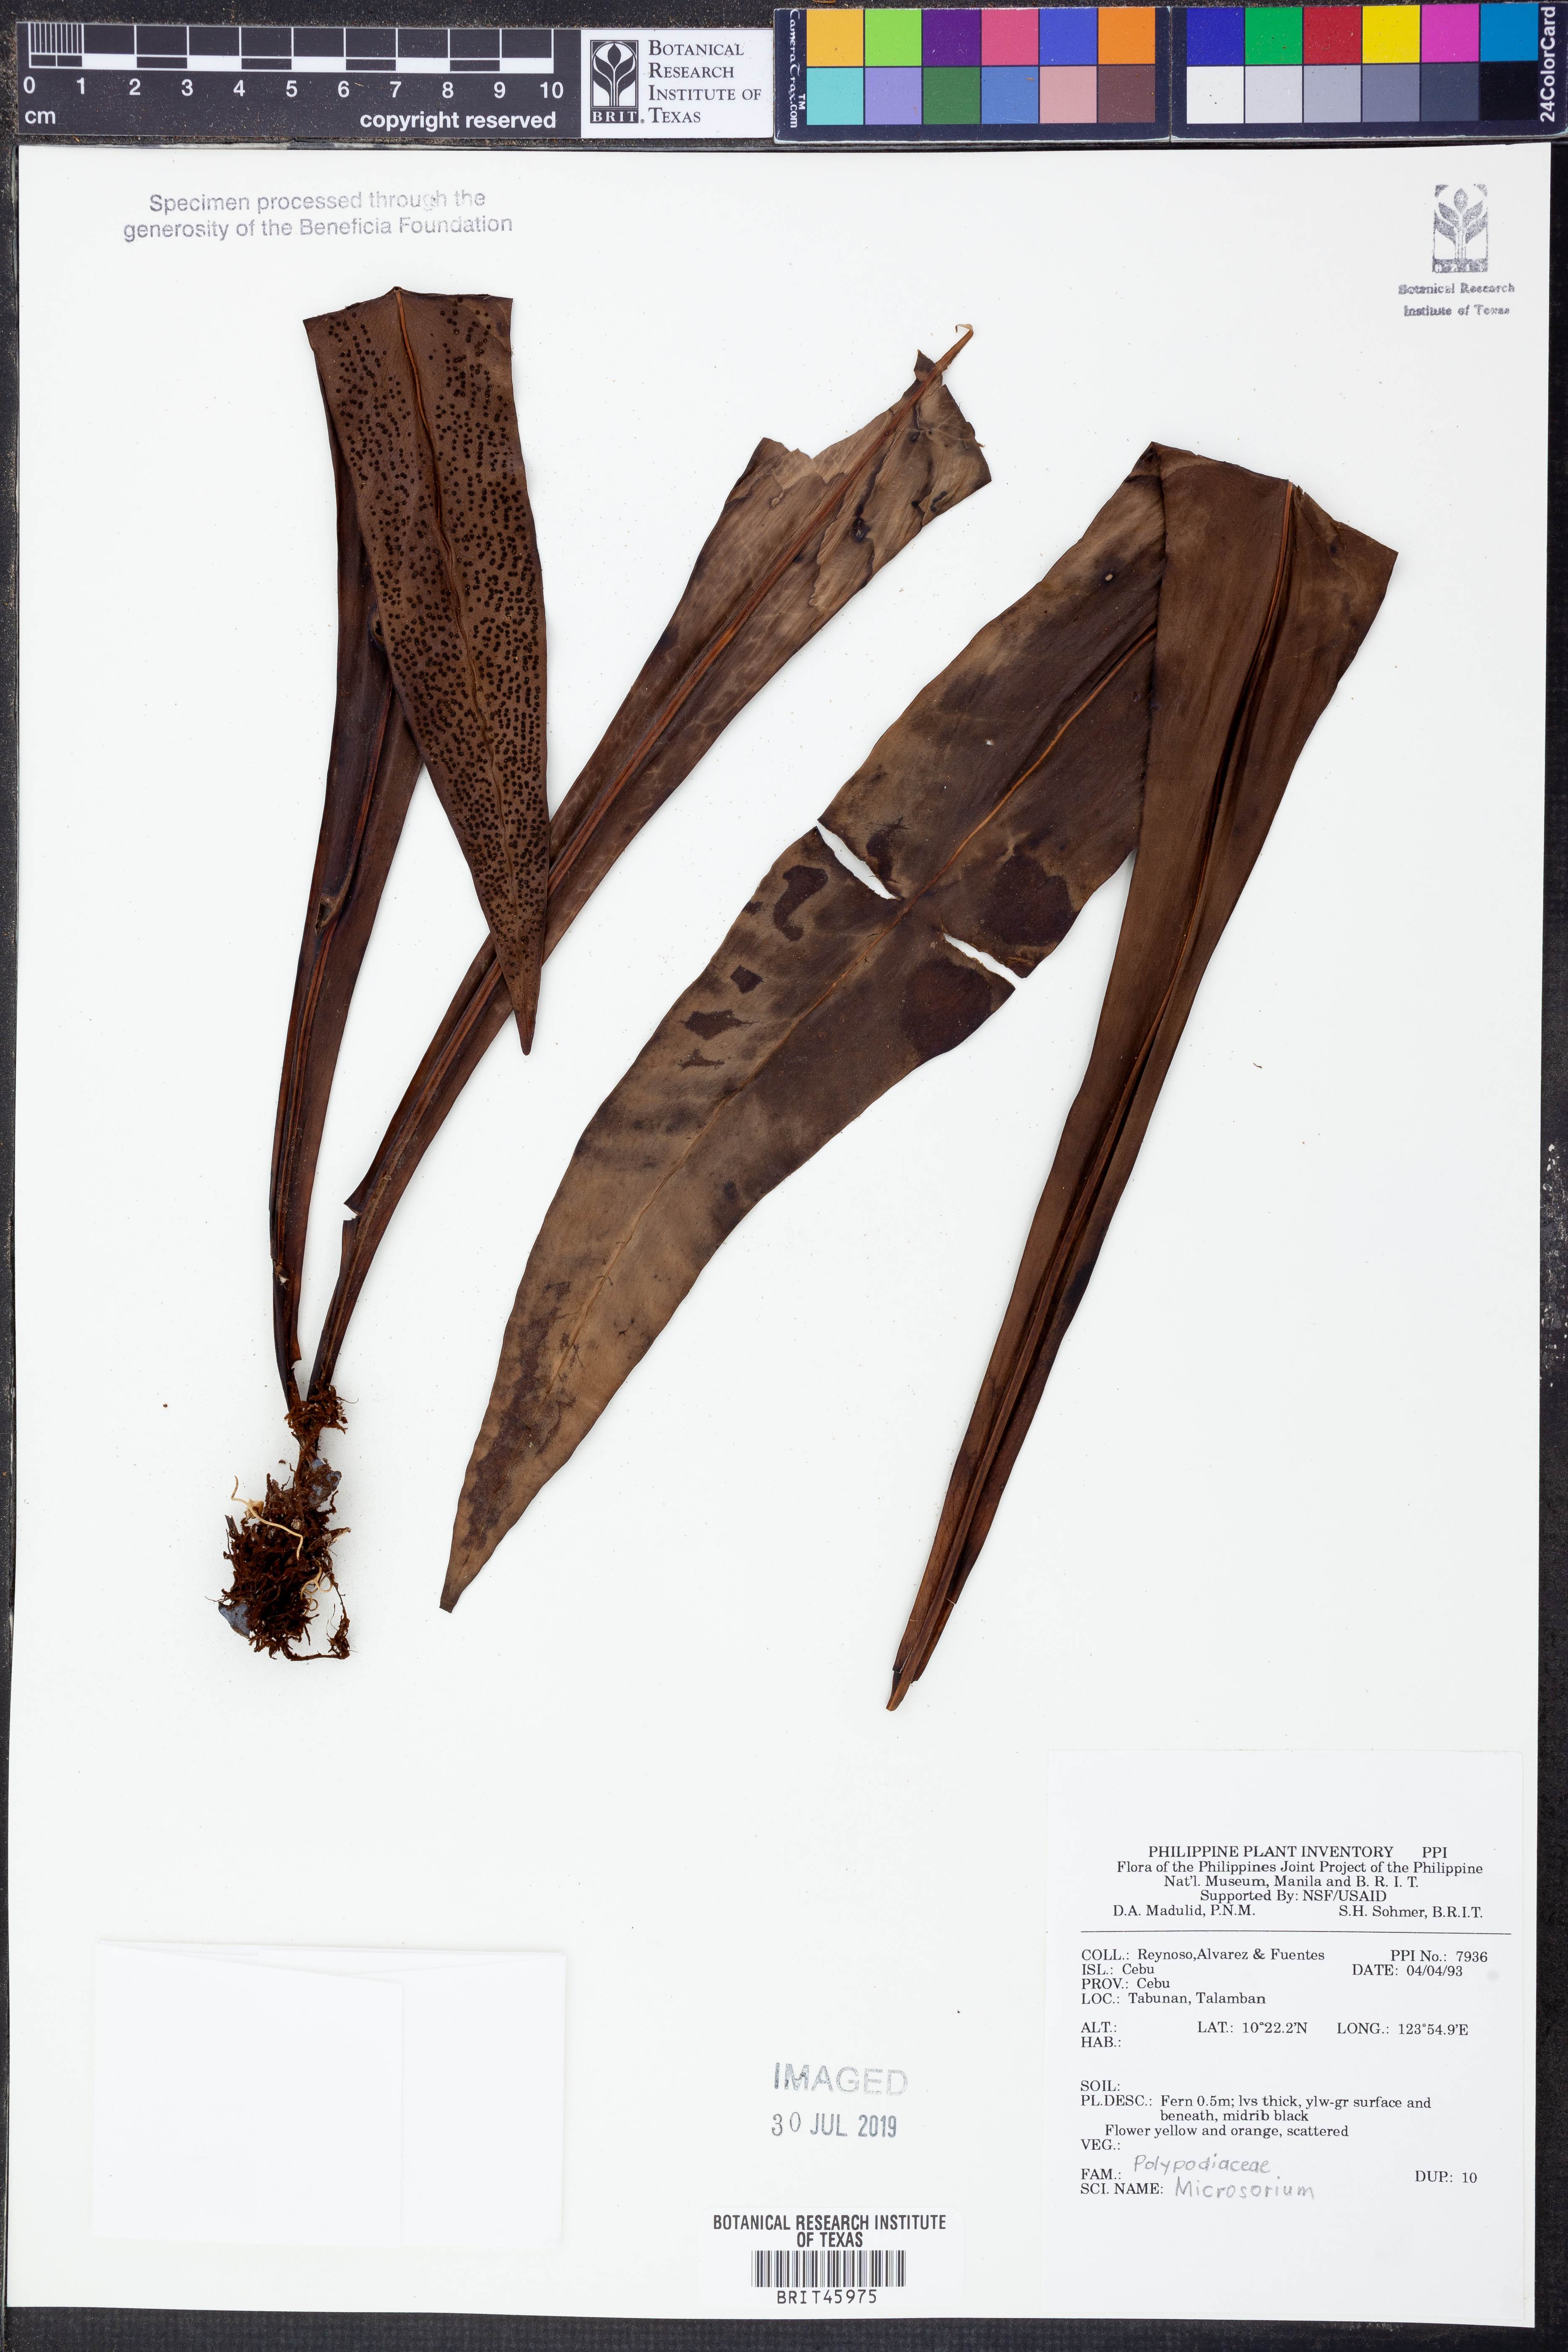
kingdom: Plantae
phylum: Tracheophyta
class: Polypodiopsida
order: Polypodiales
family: Polypodiaceae
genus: Microsorum
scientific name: Microsorum
